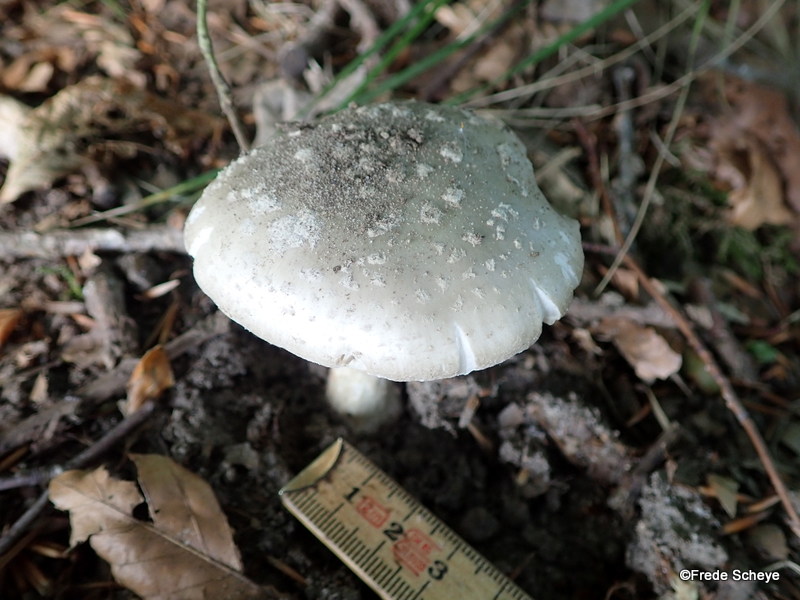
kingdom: Fungi
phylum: Basidiomycota
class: Agaricomycetes
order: Agaricales
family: Amanitaceae
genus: Amanita
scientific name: Amanita
